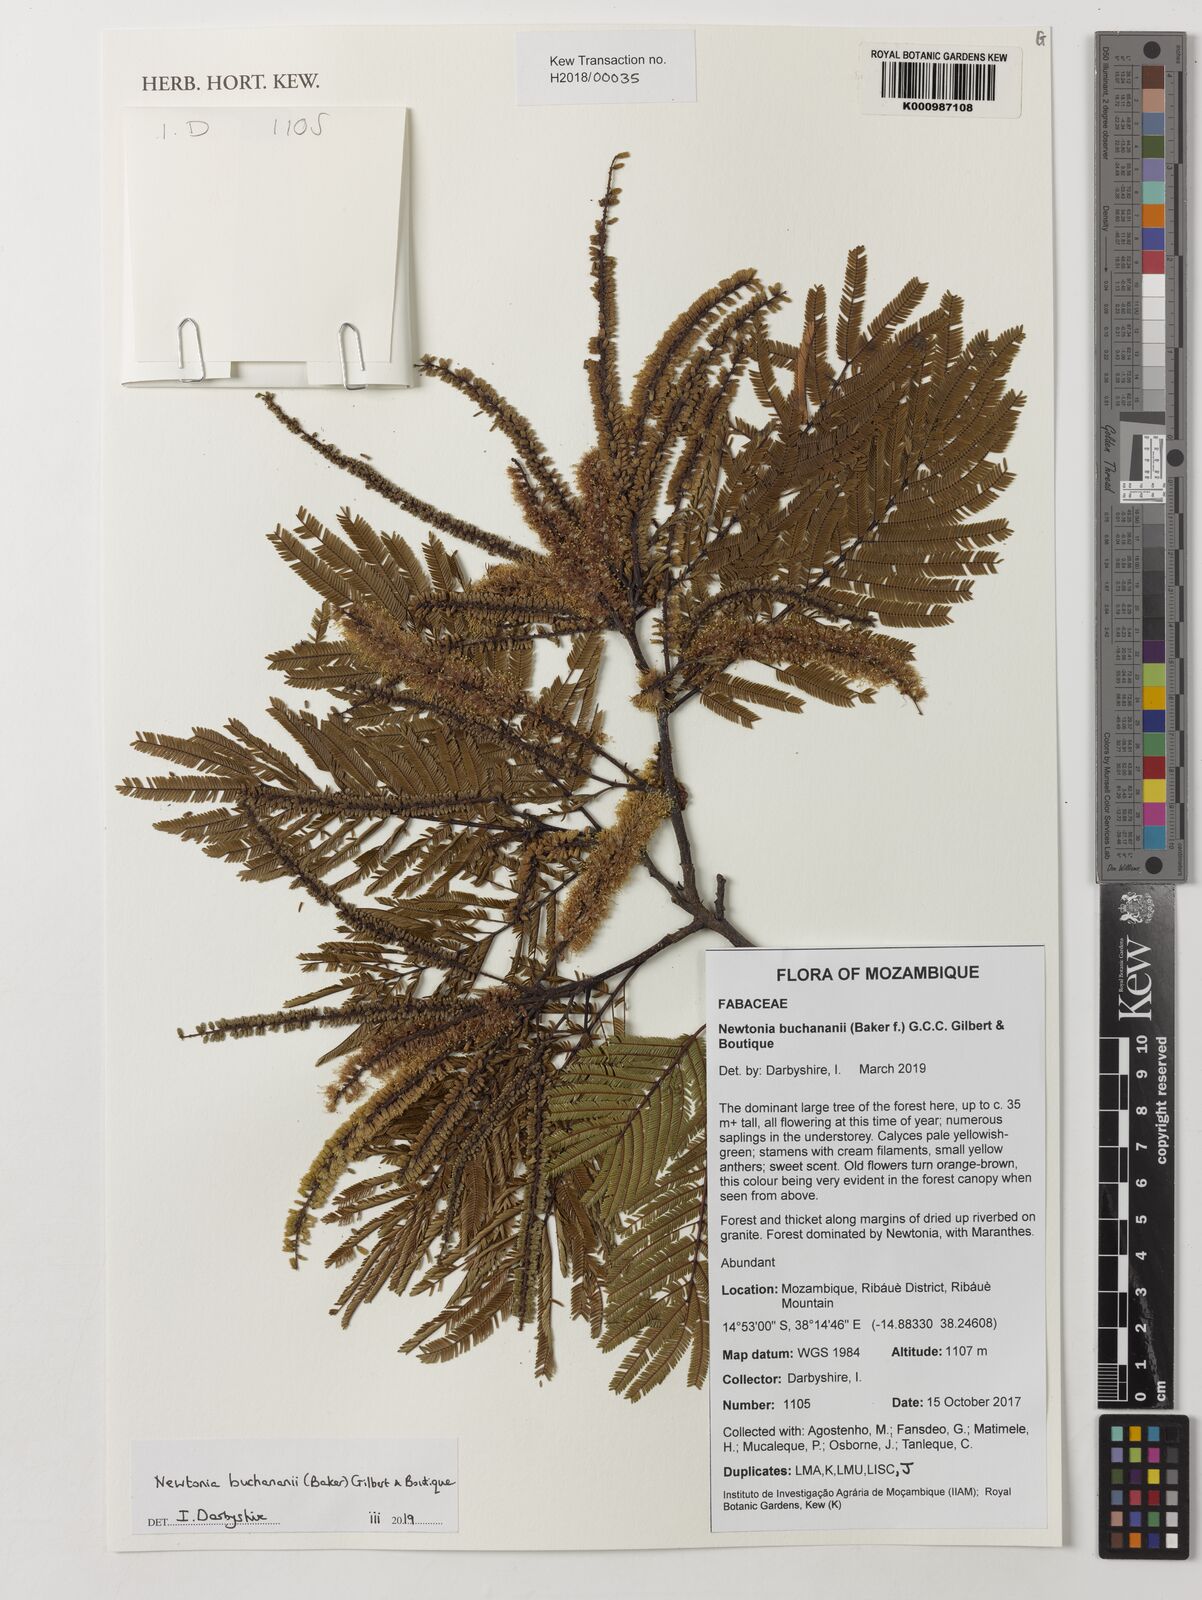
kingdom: Plantae
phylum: Tracheophyta
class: Magnoliopsida
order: Fabales
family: Fabaceae
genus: Newtonia
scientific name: Newtonia buchananii
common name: Forest newtonia
